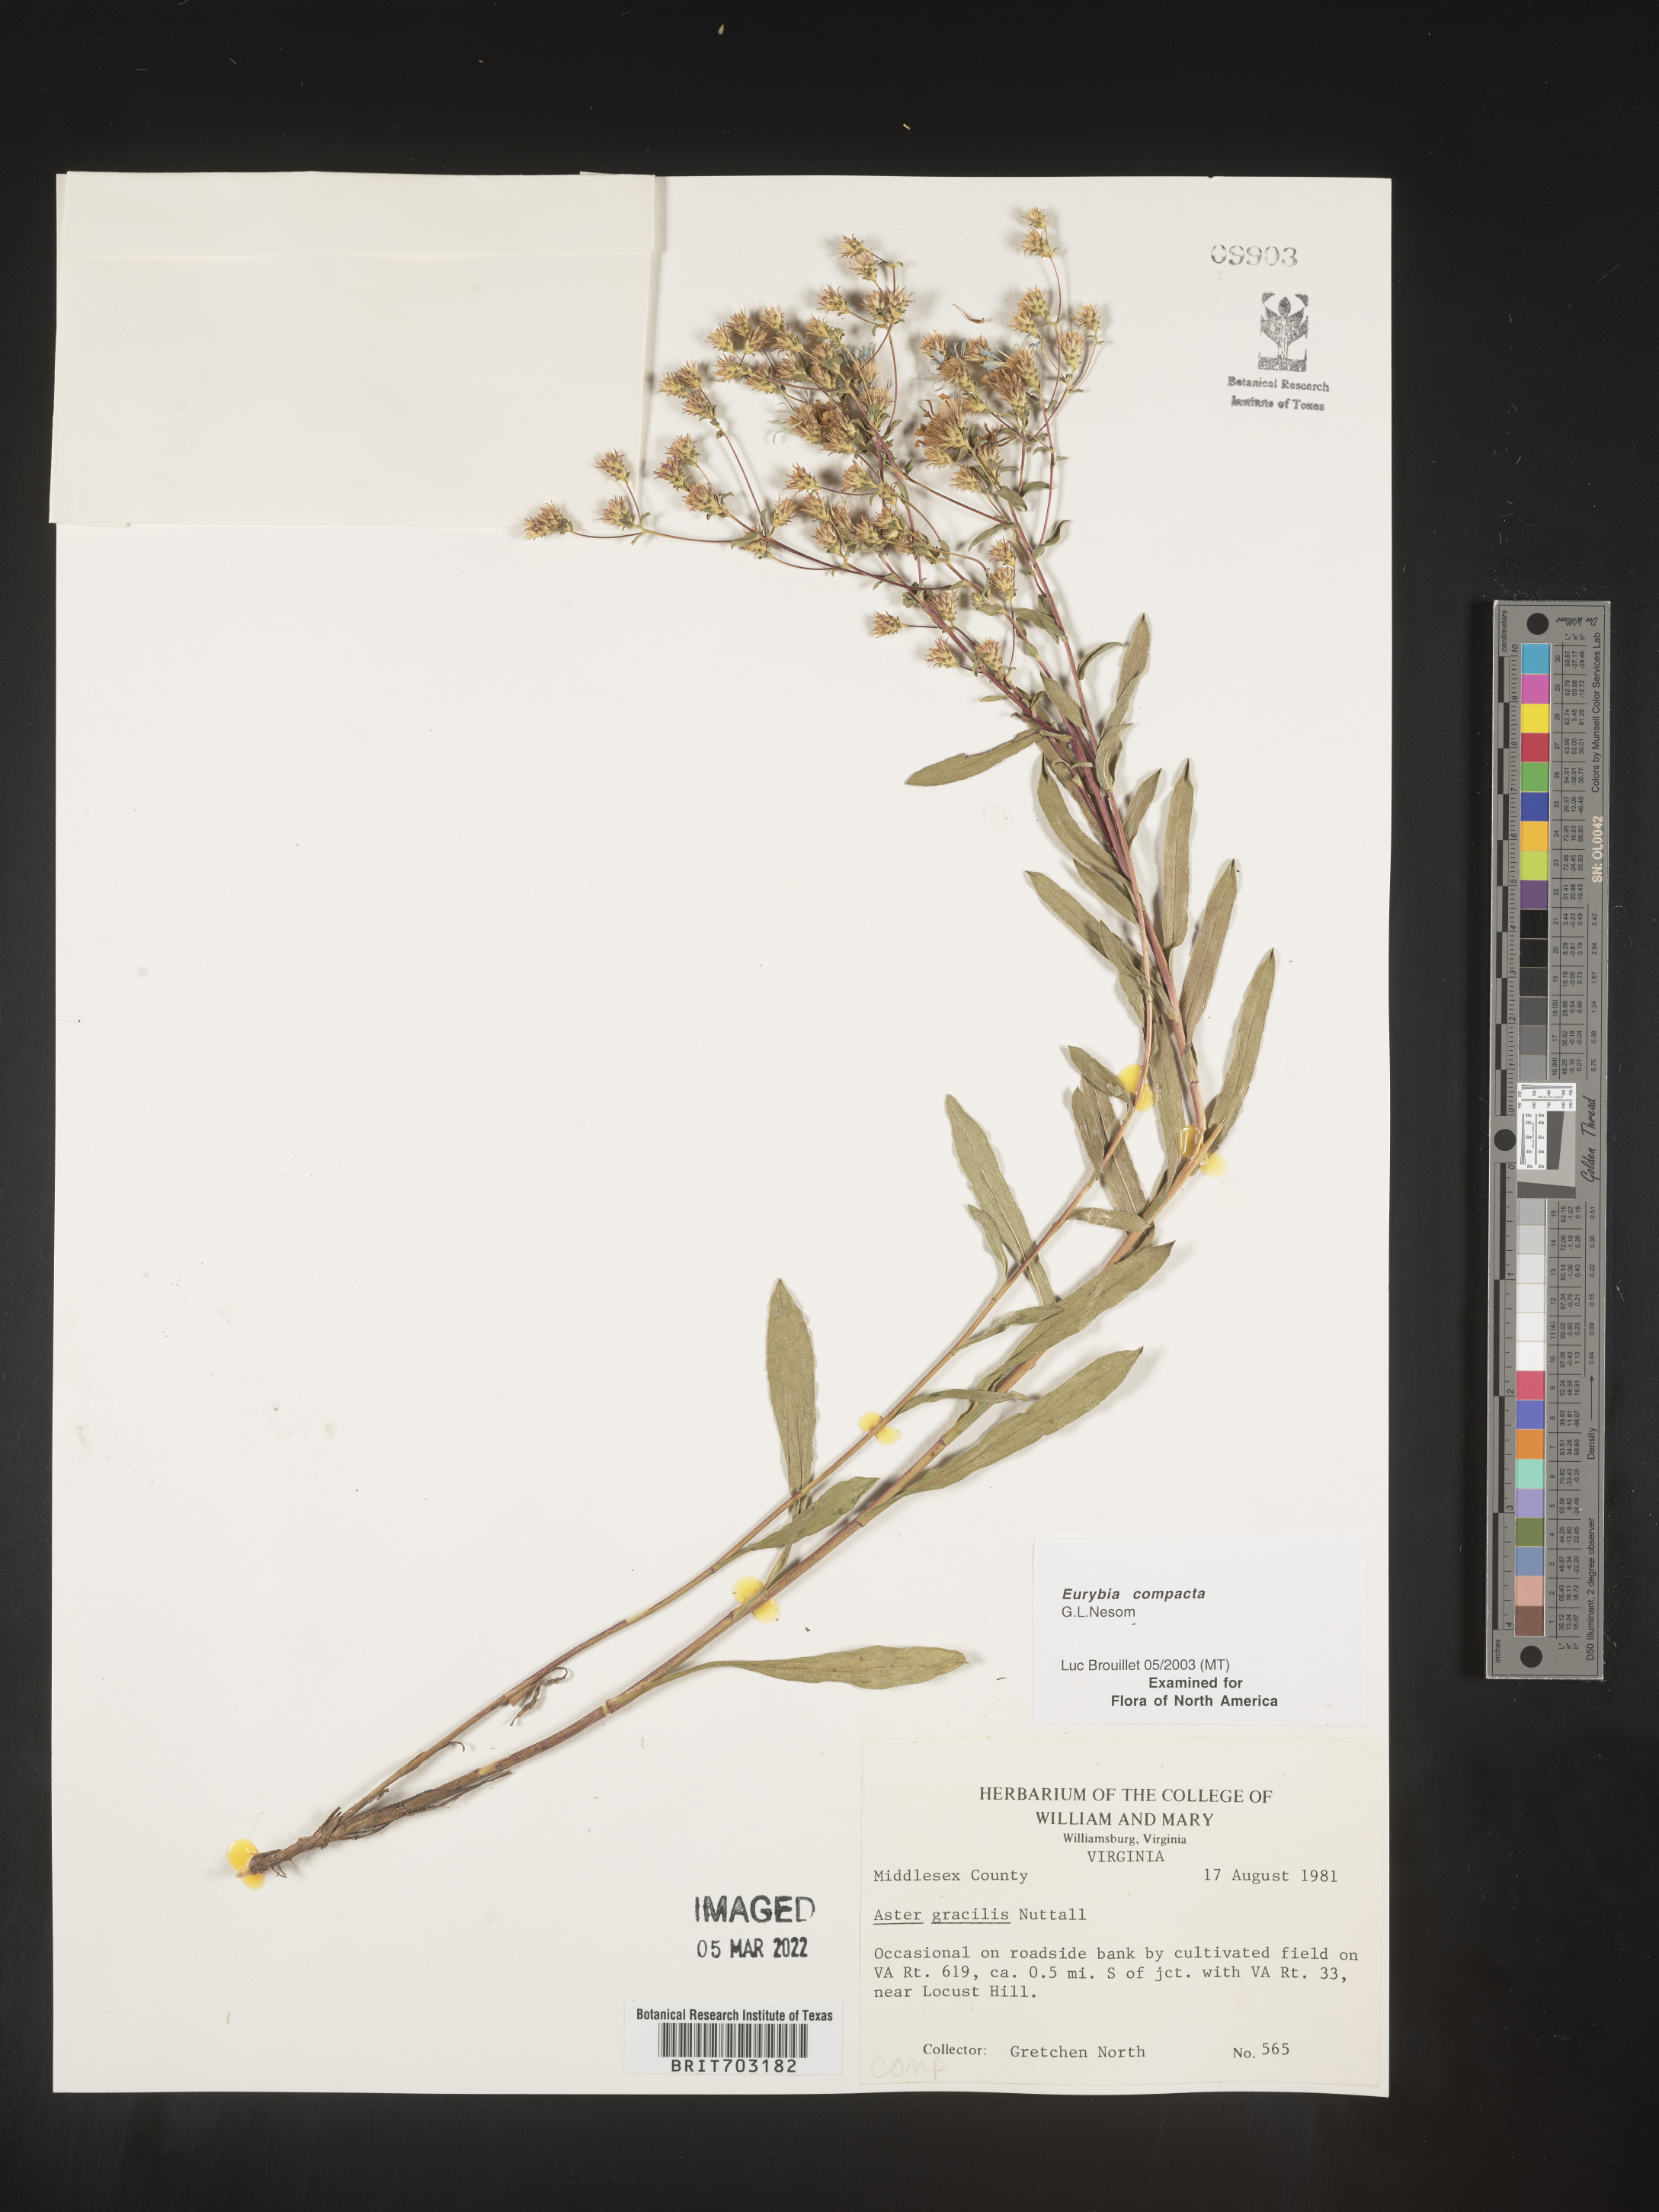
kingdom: Plantae
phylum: Tracheophyta
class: Magnoliopsida
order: Asterales
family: Asteraceae
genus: Eurybia
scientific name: Eurybia compacta
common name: Slender aster
